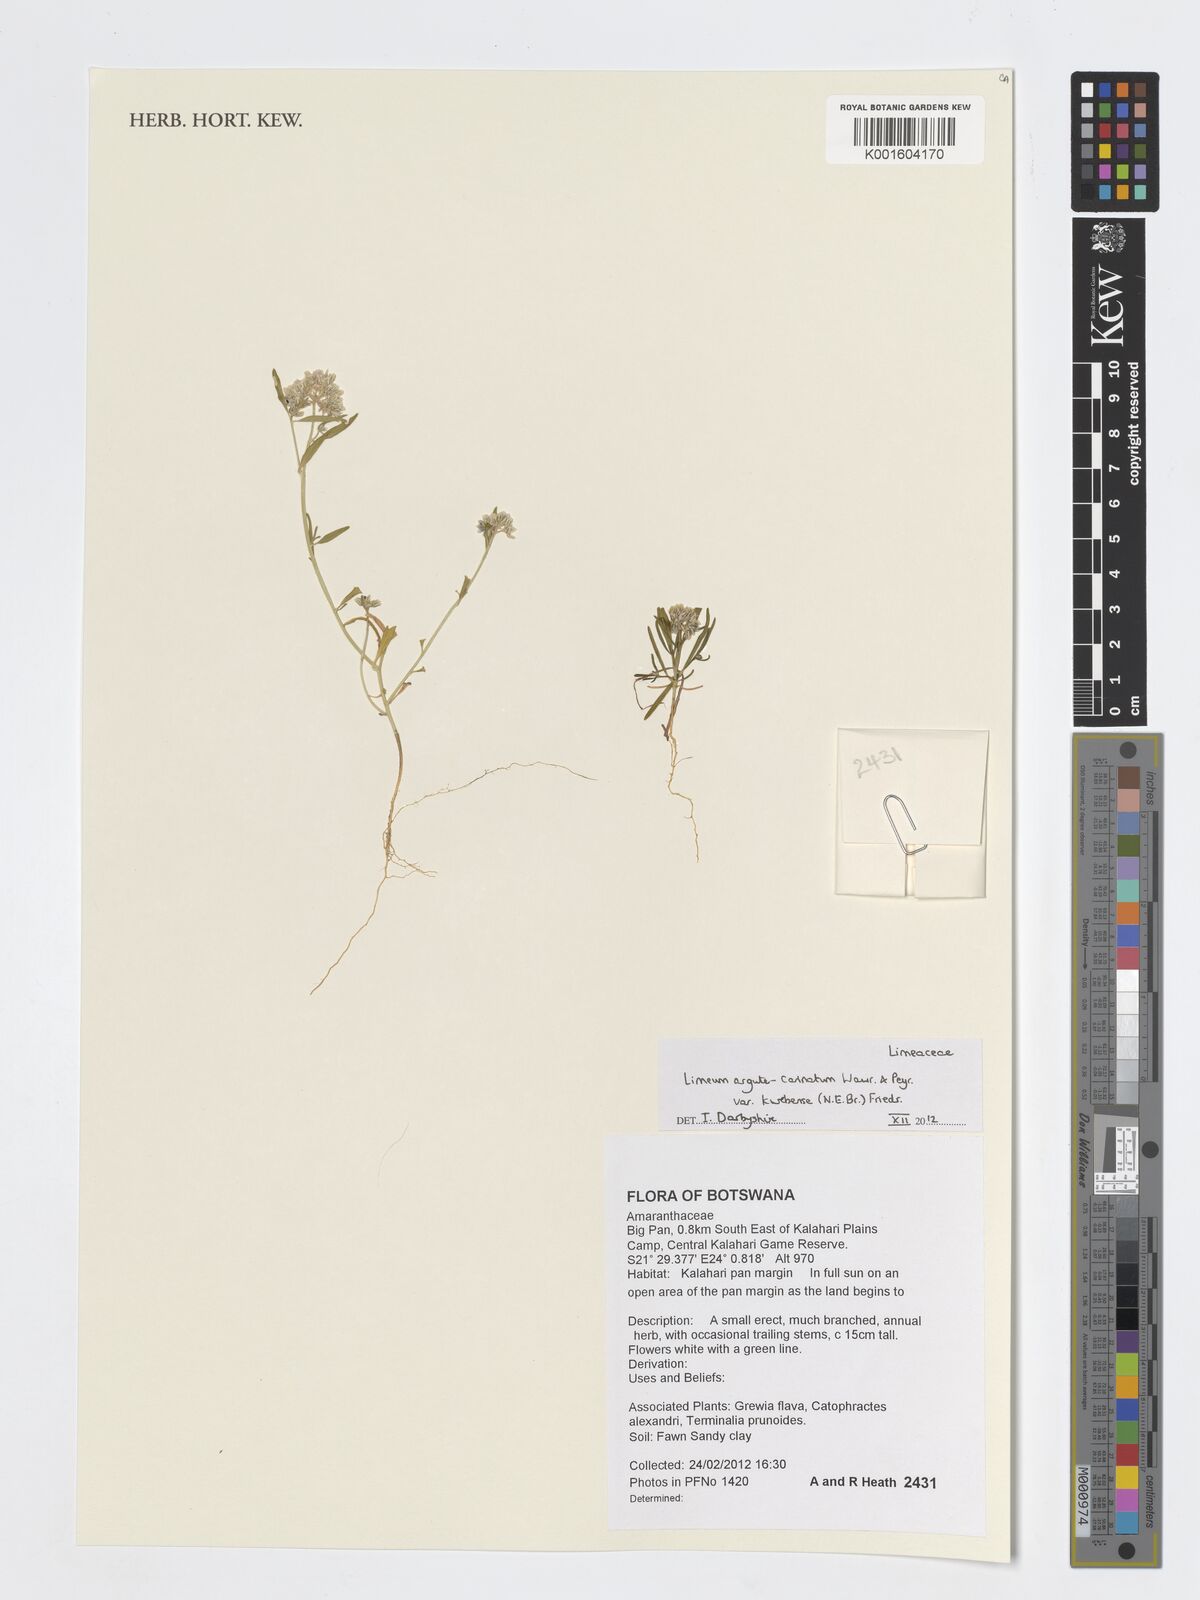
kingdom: Plantae
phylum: Tracheophyta
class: Magnoliopsida
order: Caryophyllales
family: Limeaceae
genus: Limeum
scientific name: Limeum argute-carinatum
